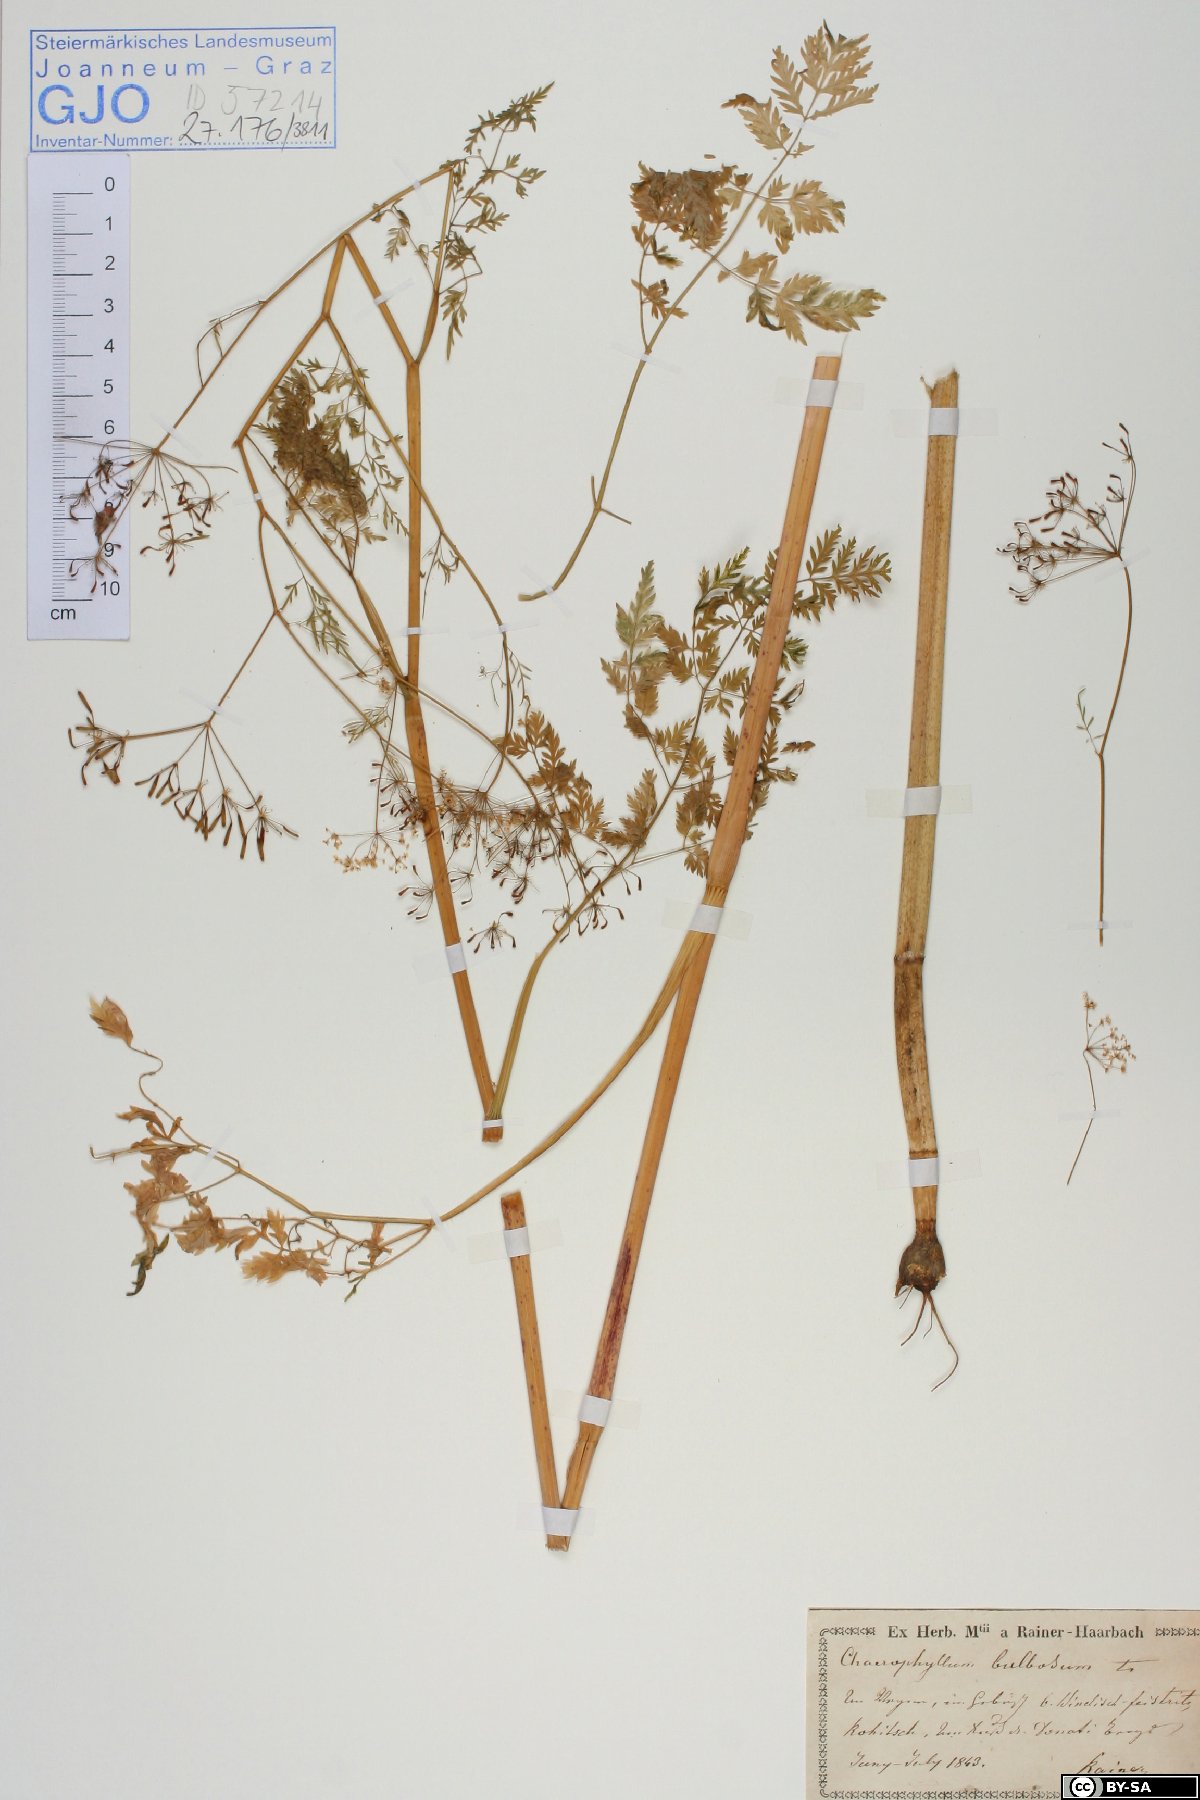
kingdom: Plantae
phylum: Tracheophyta
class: Magnoliopsida
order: Apiales
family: Apiaceae
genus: Chaerophyllum
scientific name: Chaerophyllum bulbosum
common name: Bulbous chervil
